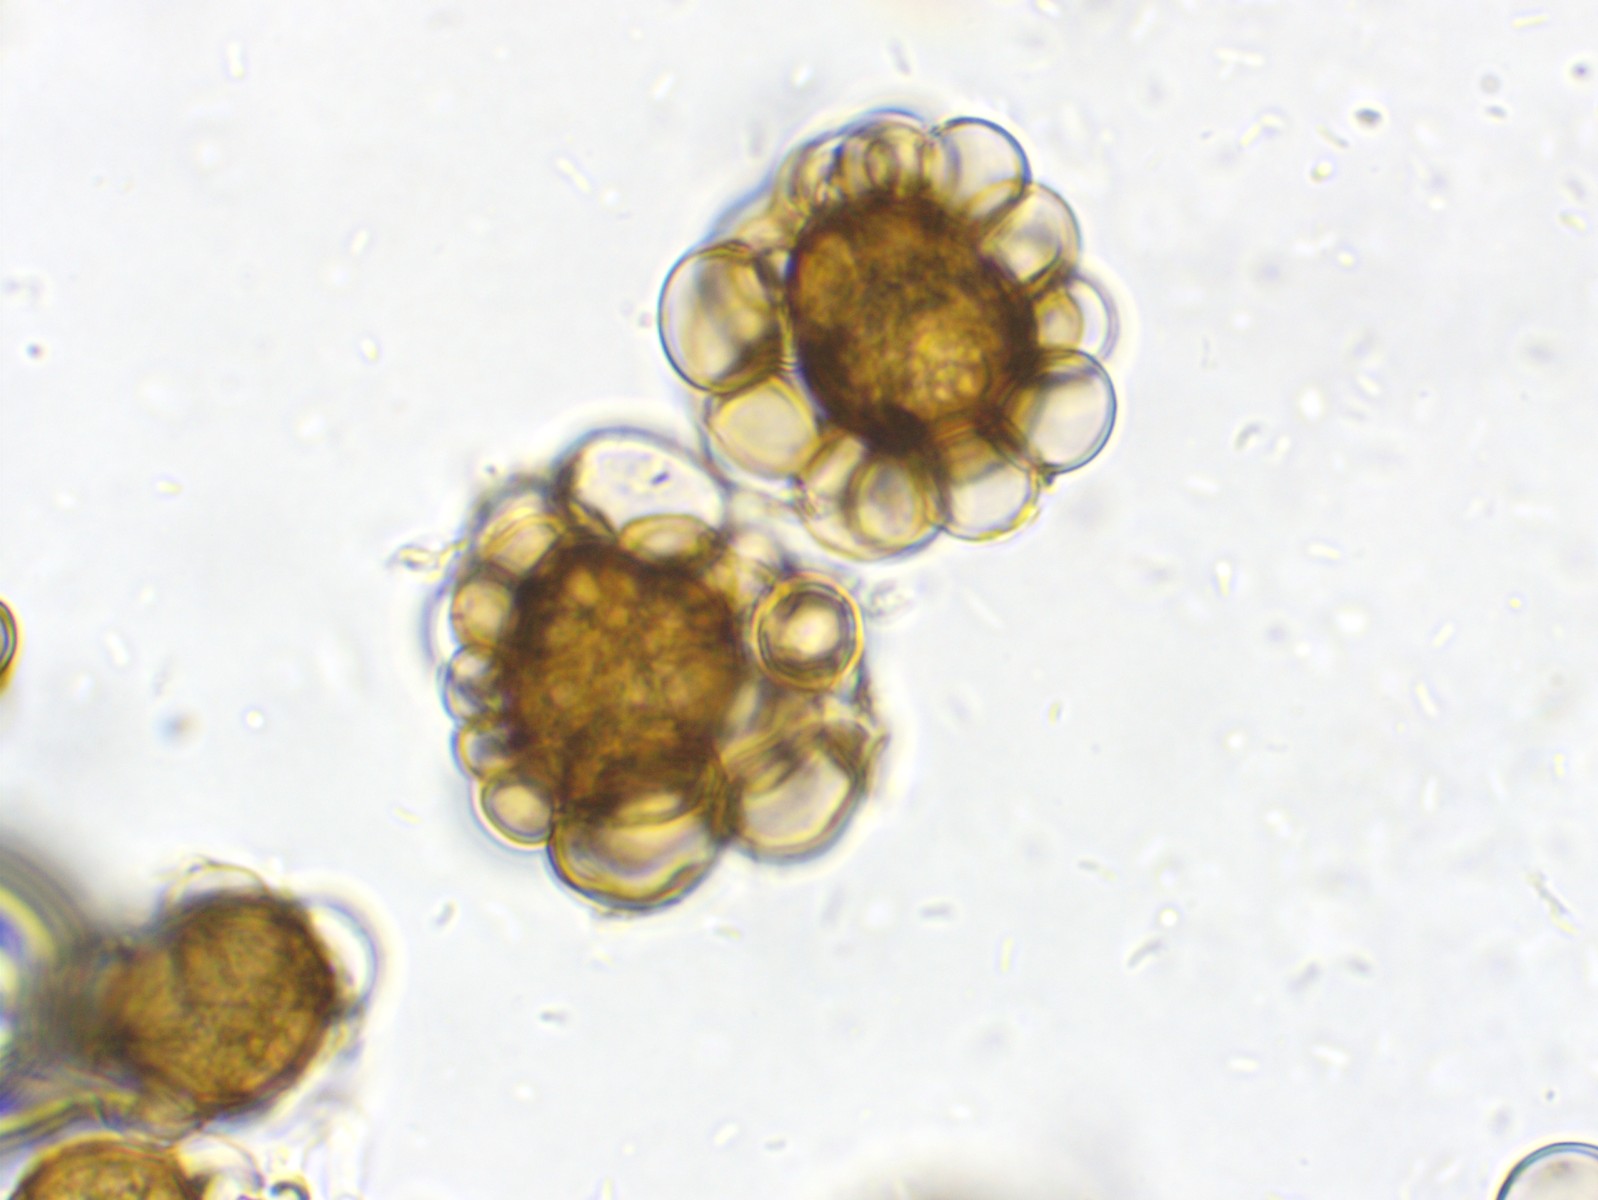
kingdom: Fungi
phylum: Basidiomycota
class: Ustilaginomycetes
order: Urocystidales
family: Urocystidaceae
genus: Urocystis
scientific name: Urocystis eranthidis
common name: erantis-brand
